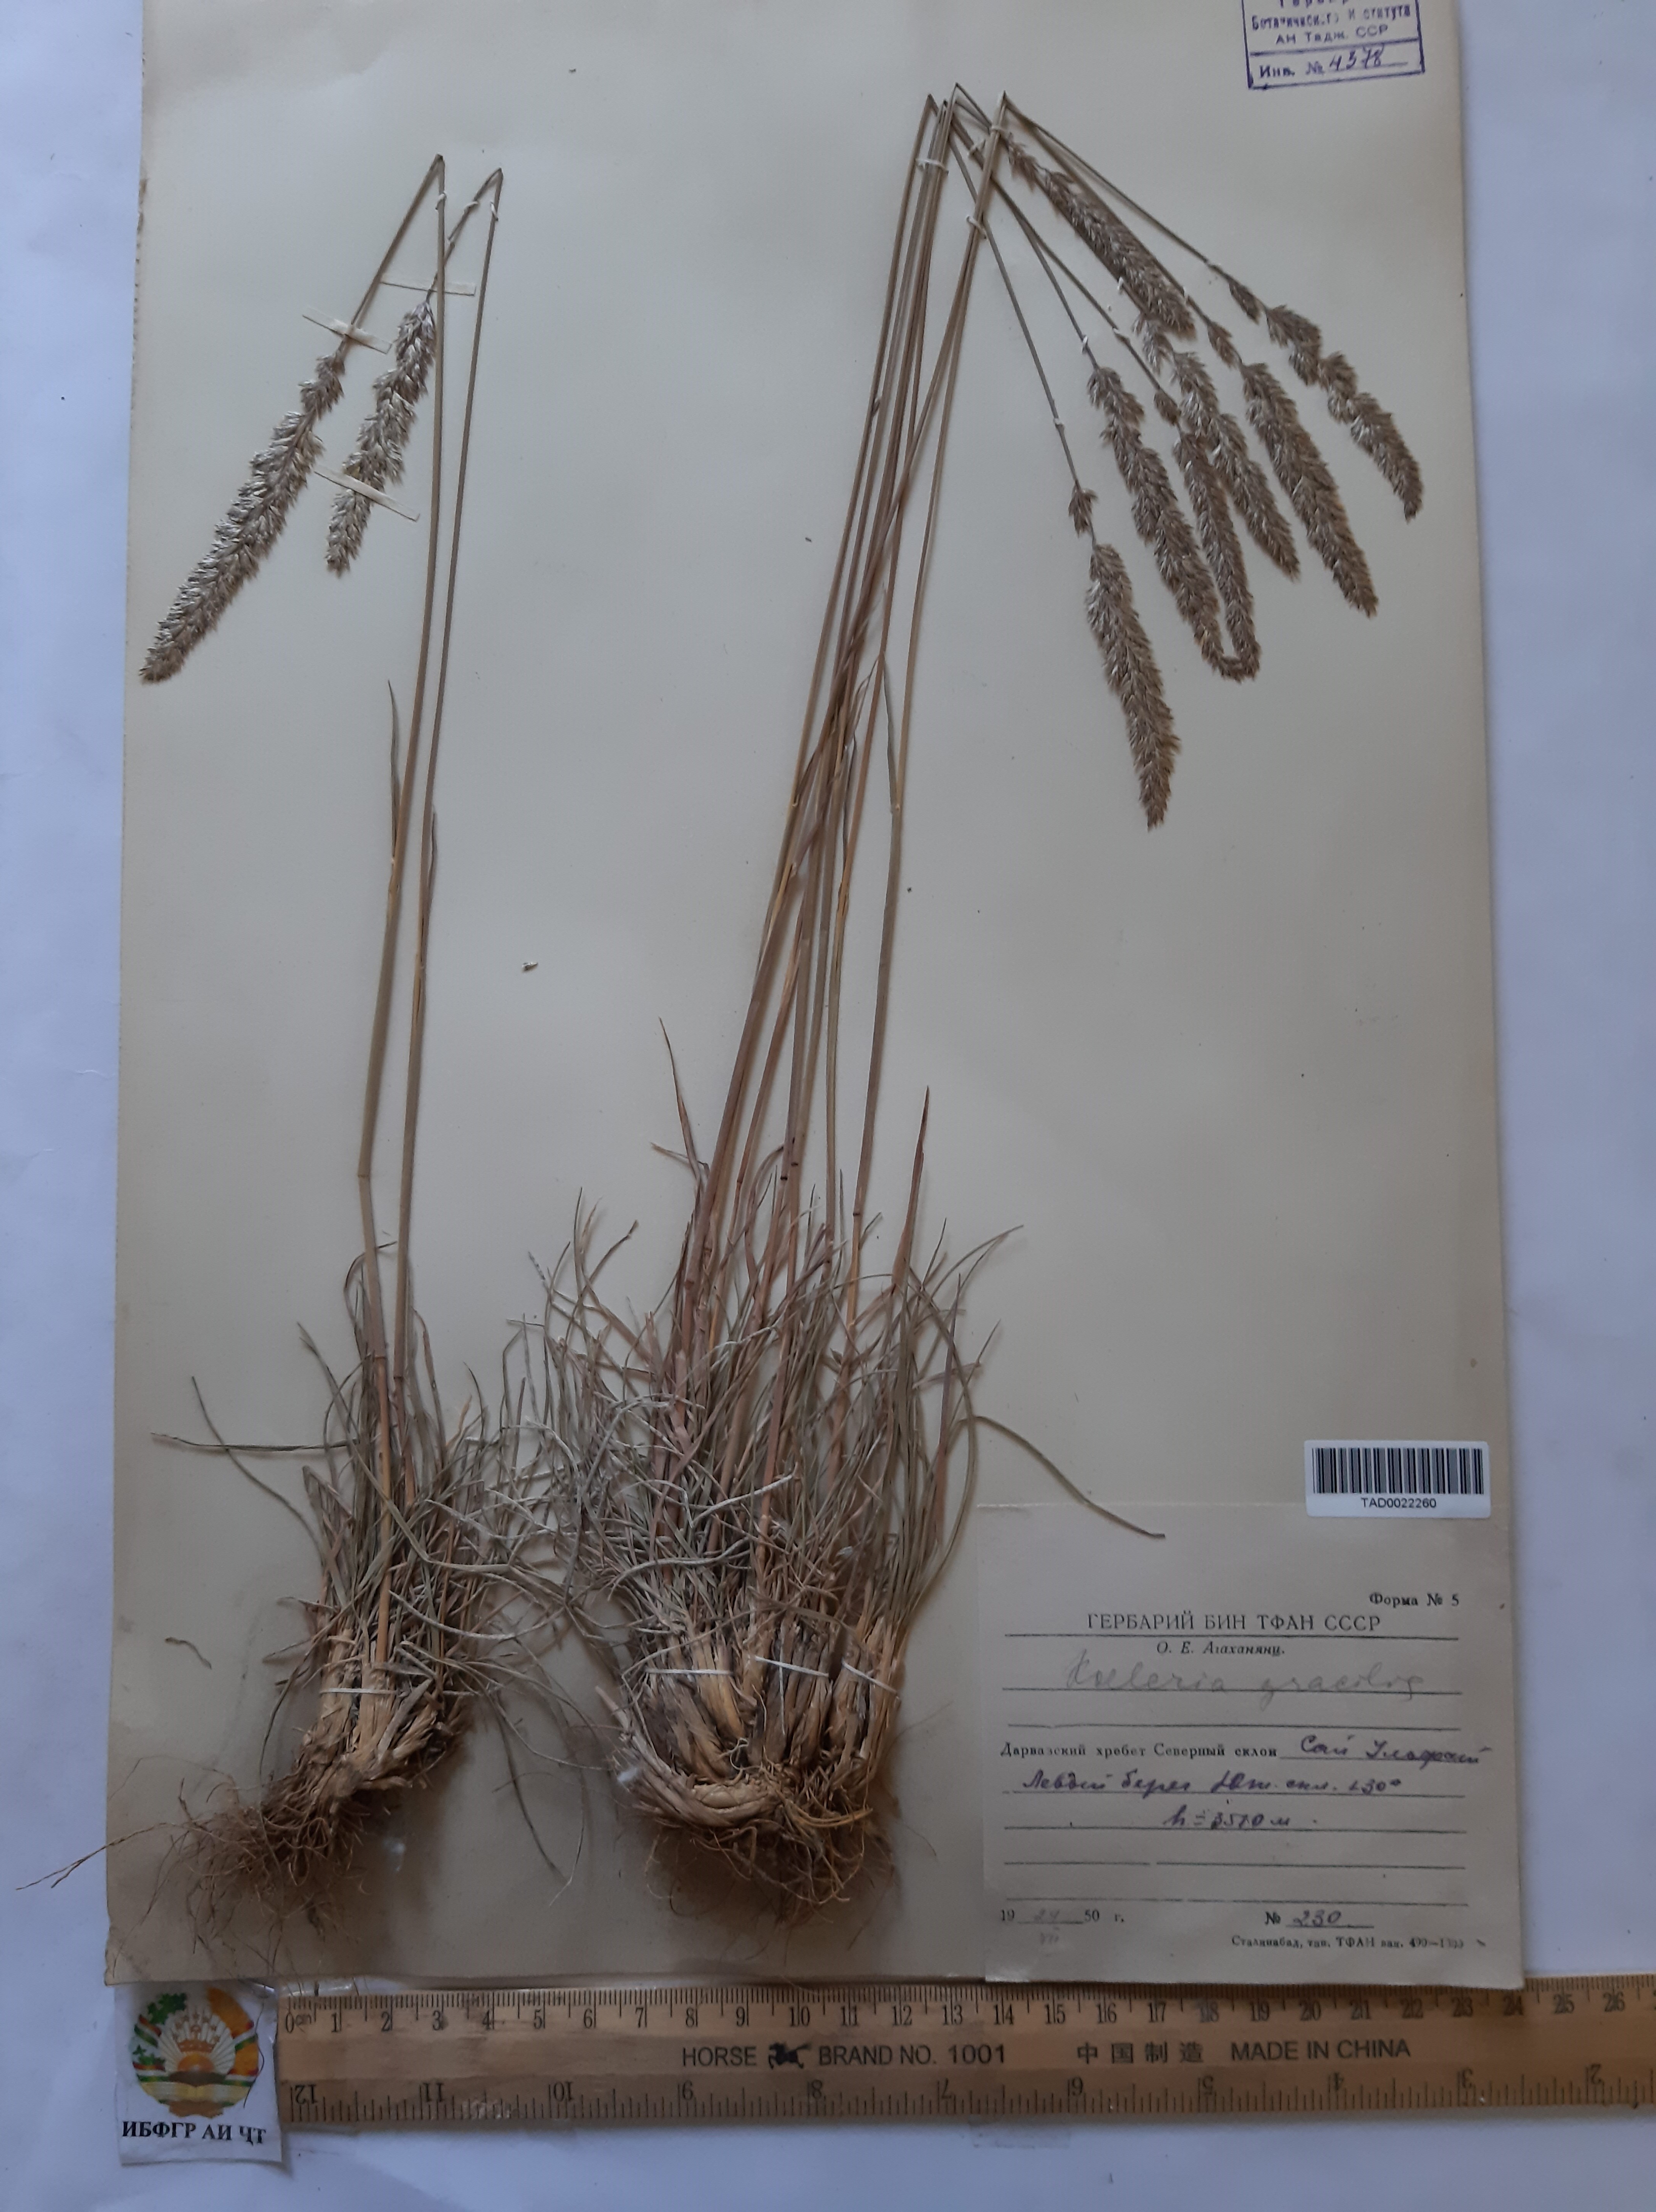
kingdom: Plantae
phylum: Tracheophyta
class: Liliopsida
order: Poales
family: Poaceae
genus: Koeleria
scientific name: Koeleria macrantha
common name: Crested hair-grass
